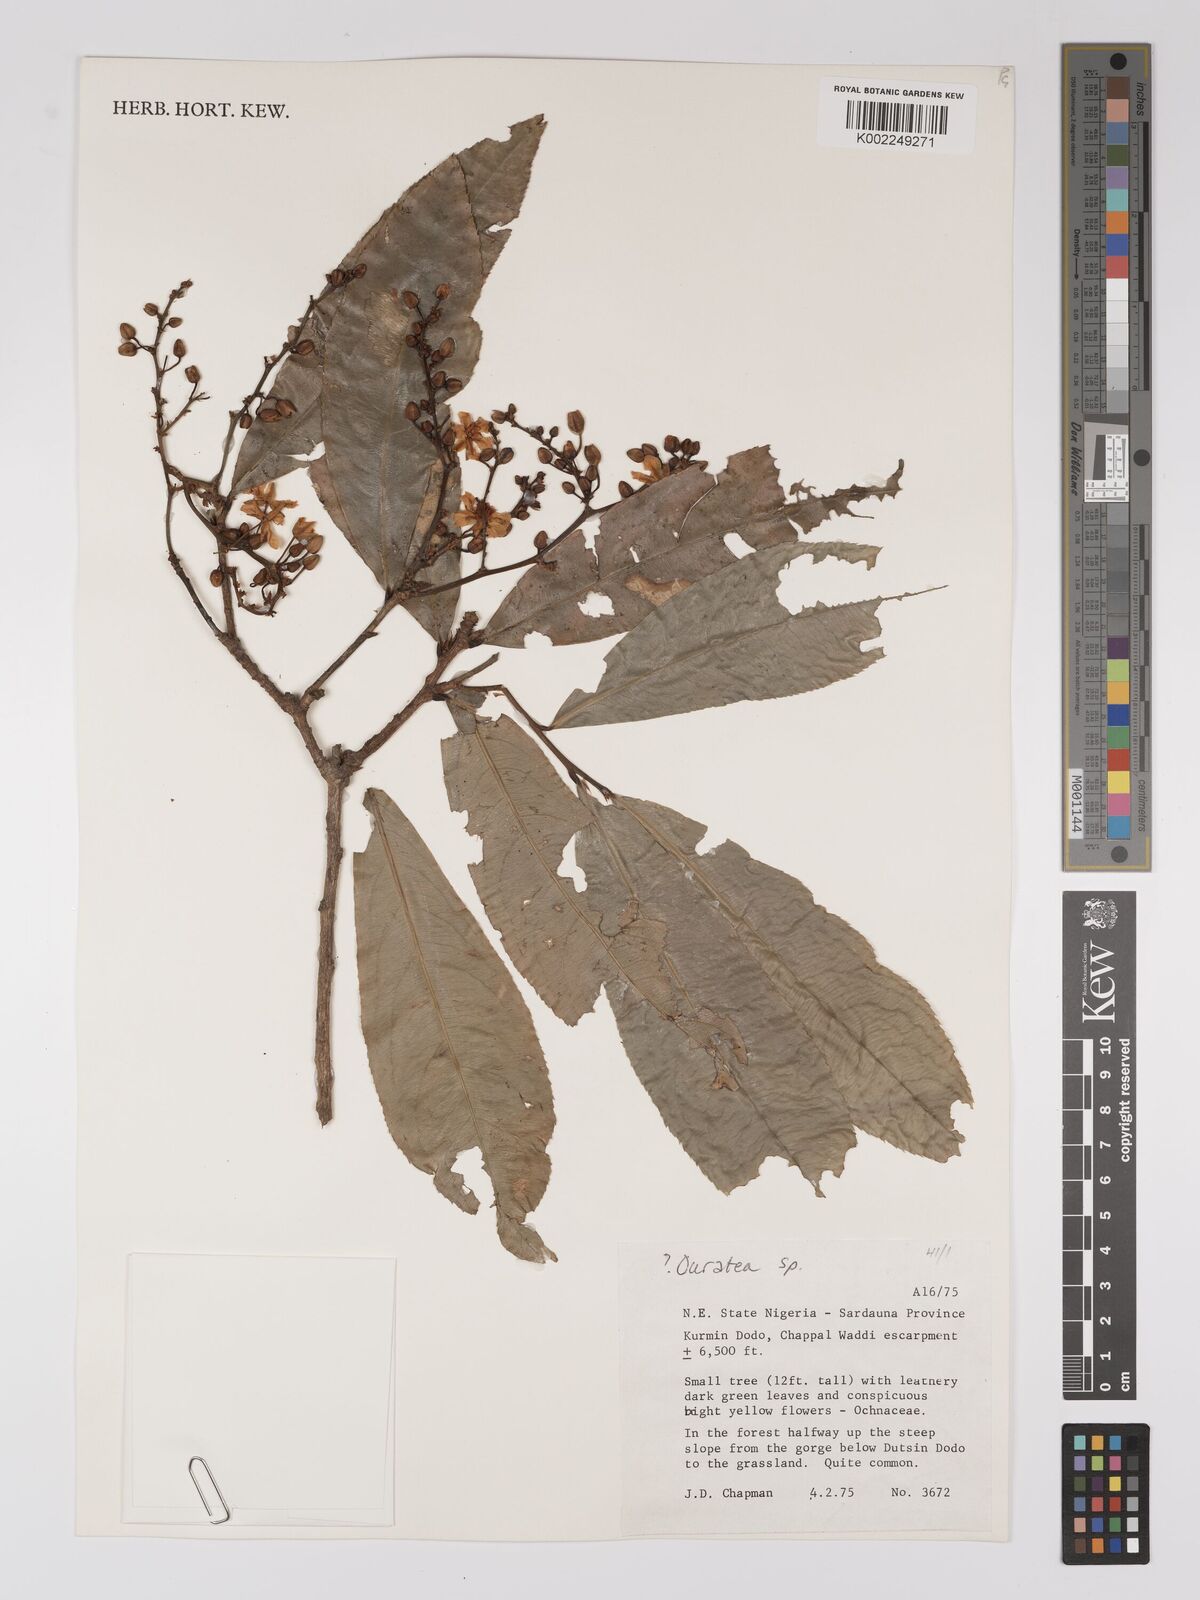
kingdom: Plantae
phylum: Tracheophyta
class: Magnoliopsida
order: Malpighiales
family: Ochnaceae
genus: Campylospermum
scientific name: Campylospermum
